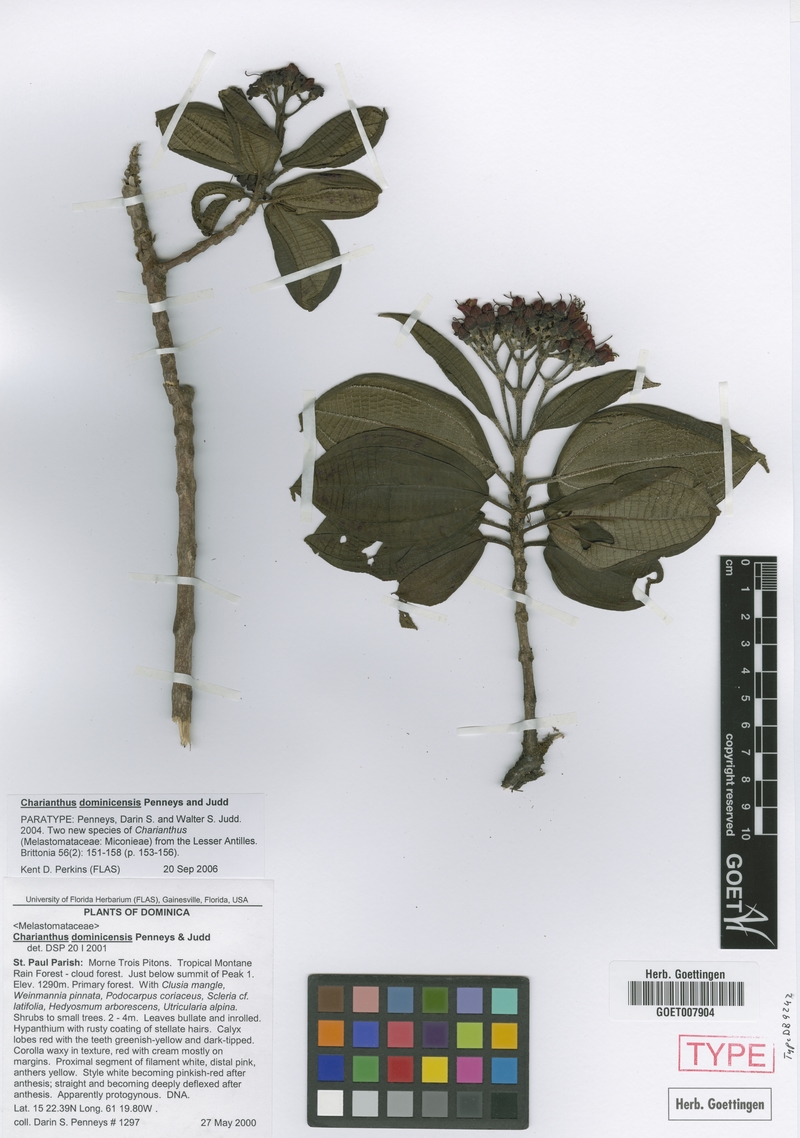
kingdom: Plantae
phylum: Tracheophyta
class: Magnoliopsida
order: Myrtales
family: Melastomataceae
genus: Miconia
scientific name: Miconia dominicensis
